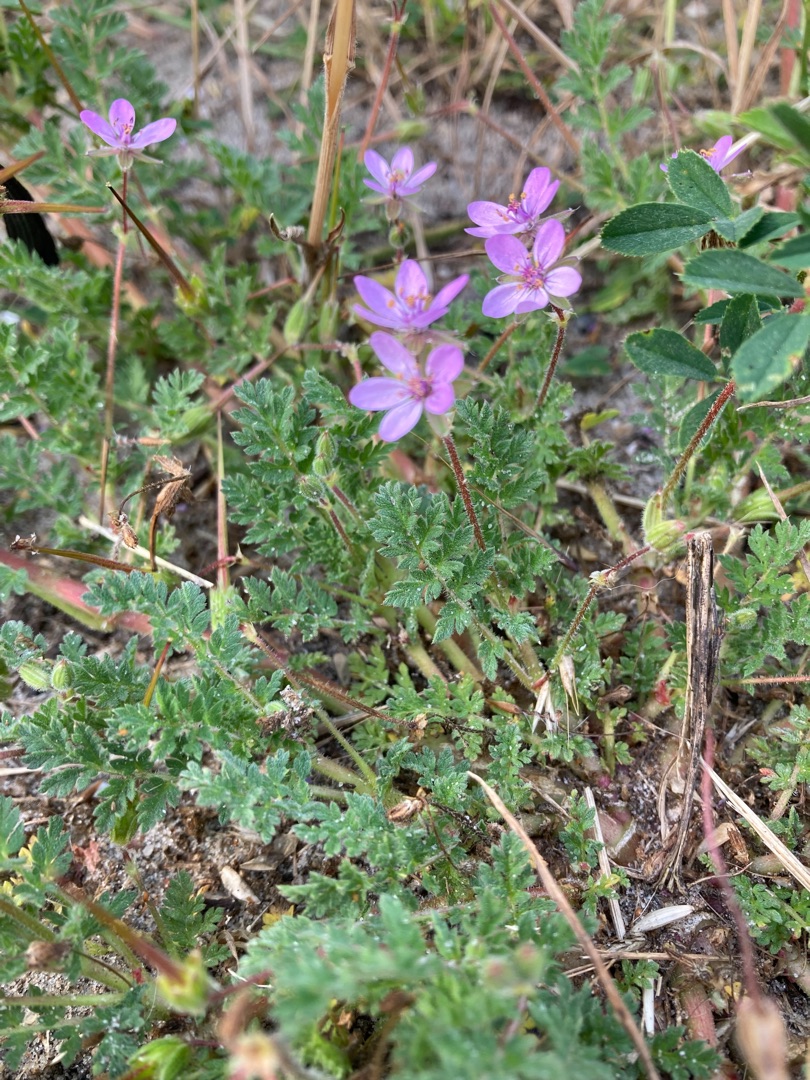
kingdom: Plantae
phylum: Tracheophyta
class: Magnoliopsida
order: Geraniales
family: Geraniaceae
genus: Erodium
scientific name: Erodium cicutarium
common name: Hejrenæb
